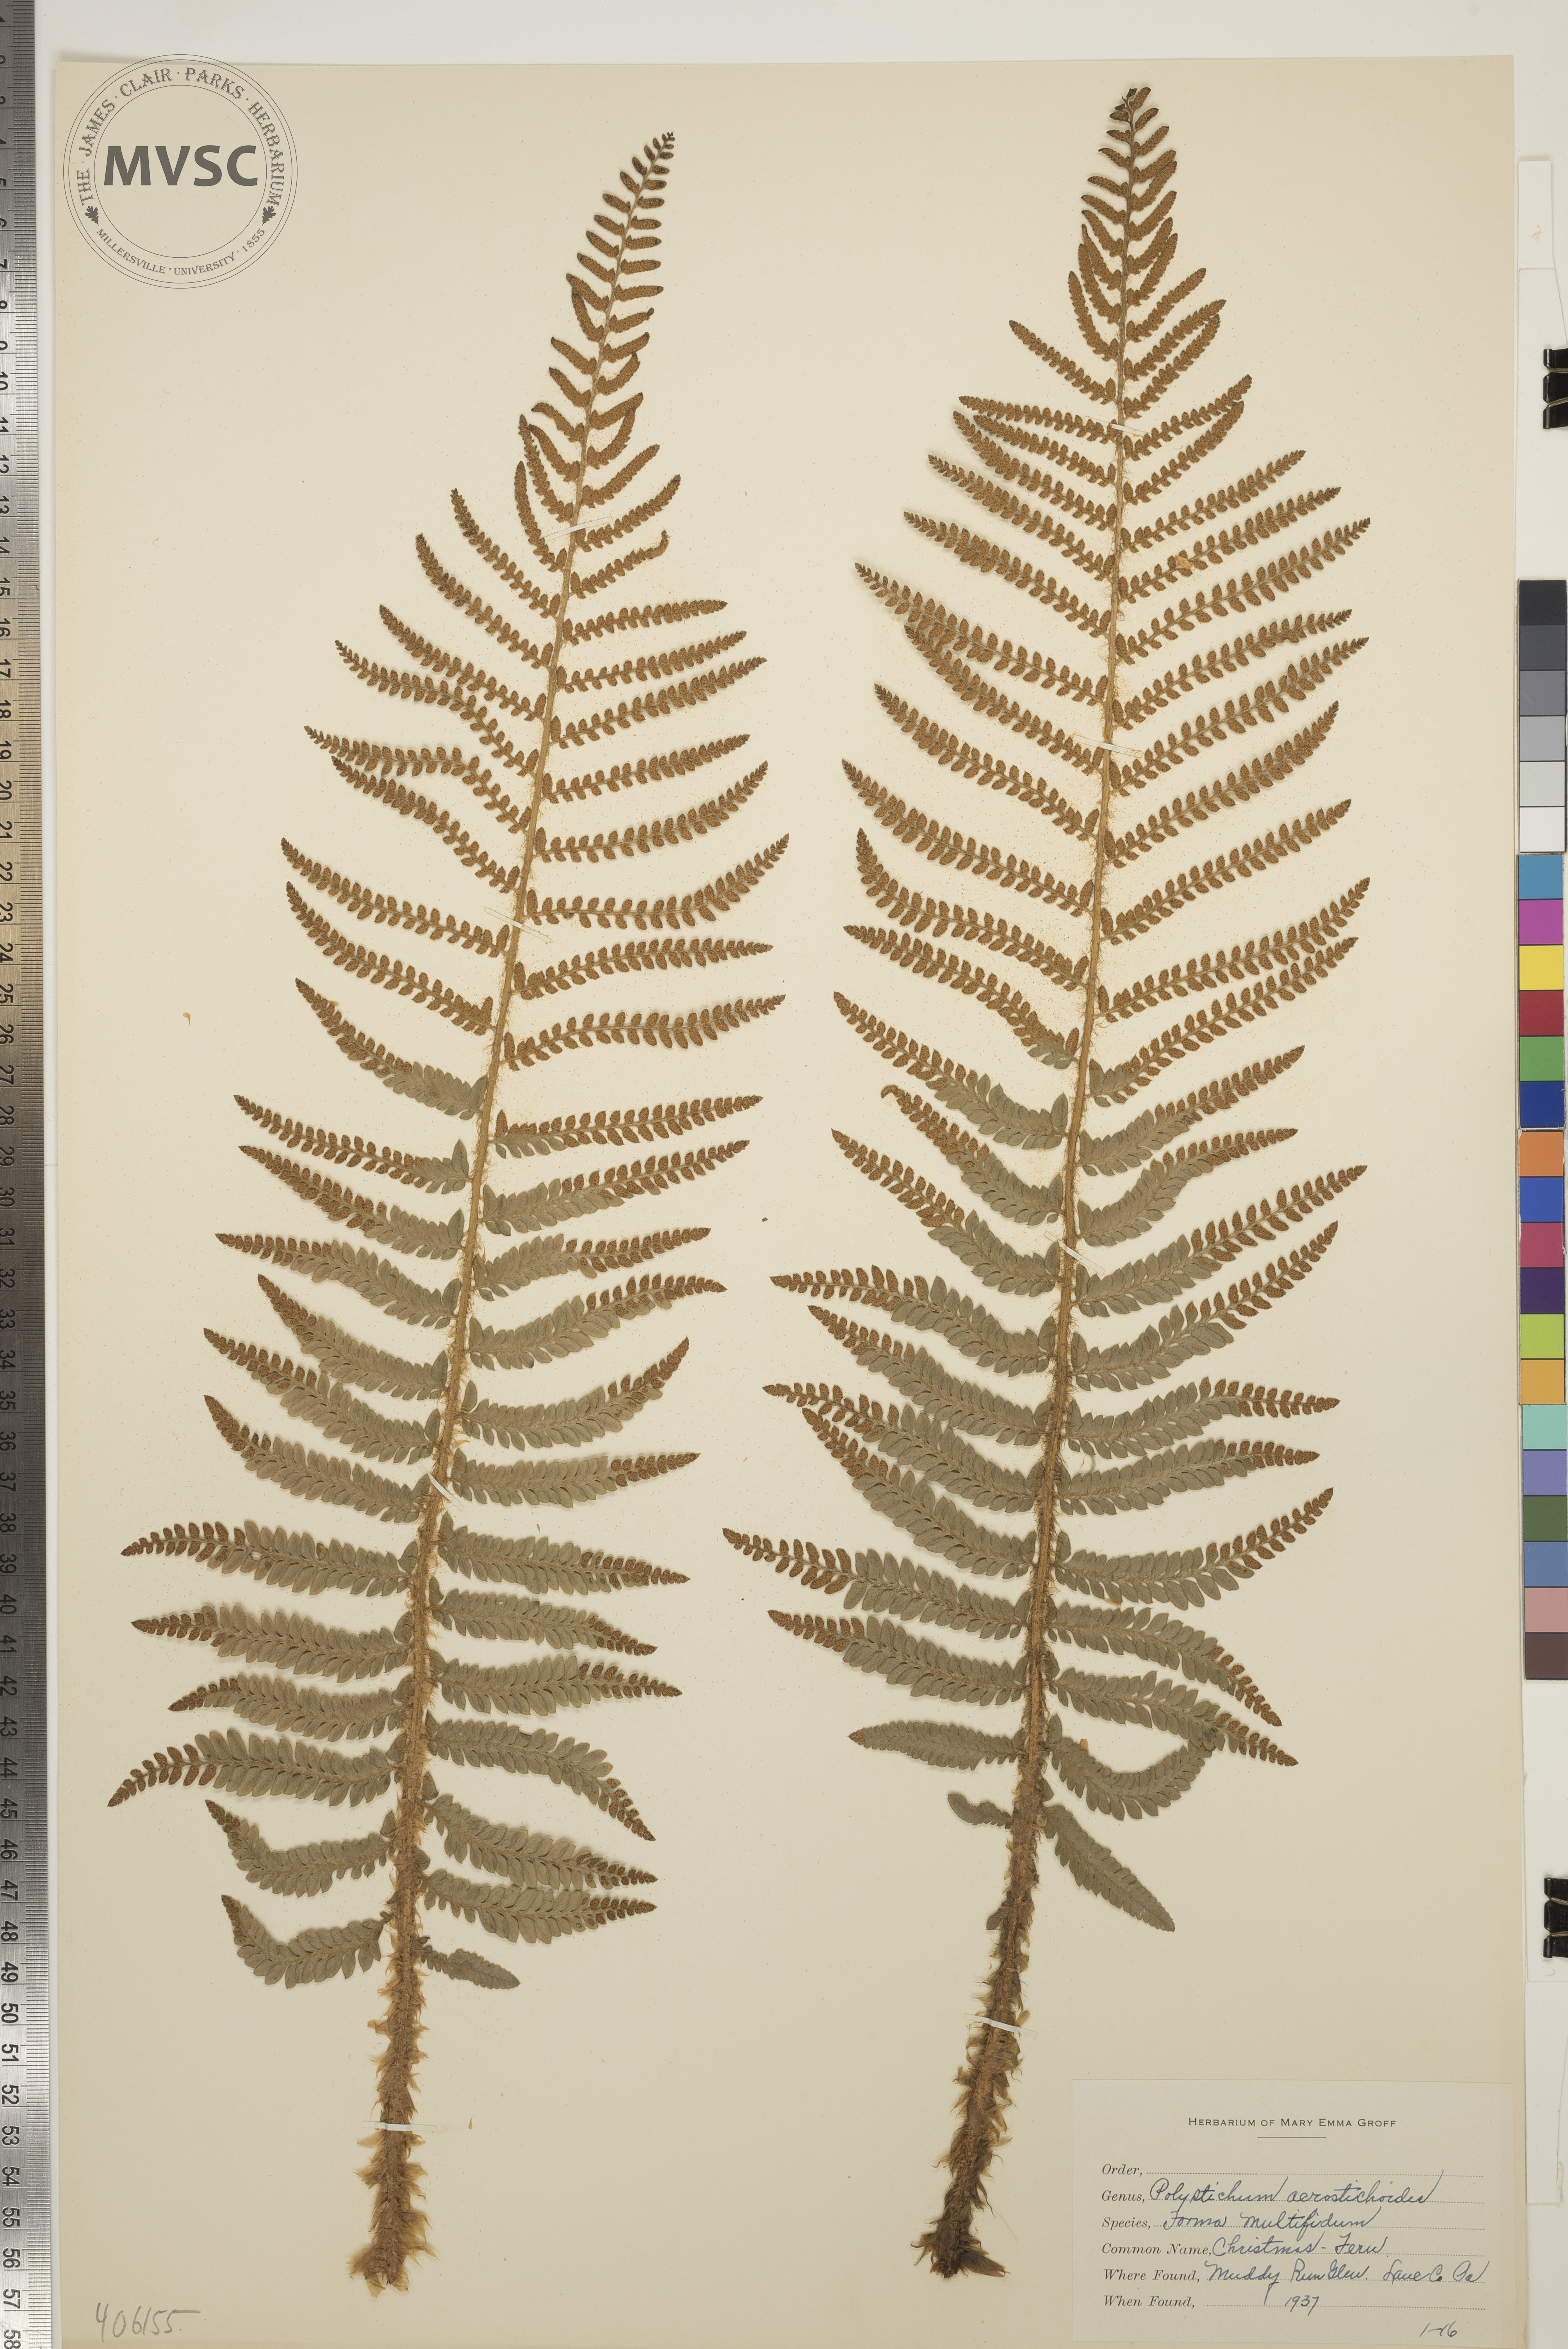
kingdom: Plantae
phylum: Tracheophyta
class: Polypodiopsida
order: Polypodiales
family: Dryopteridaceae
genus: Polystichum
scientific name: Polystichum acrostichoides
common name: Christmas Fern
